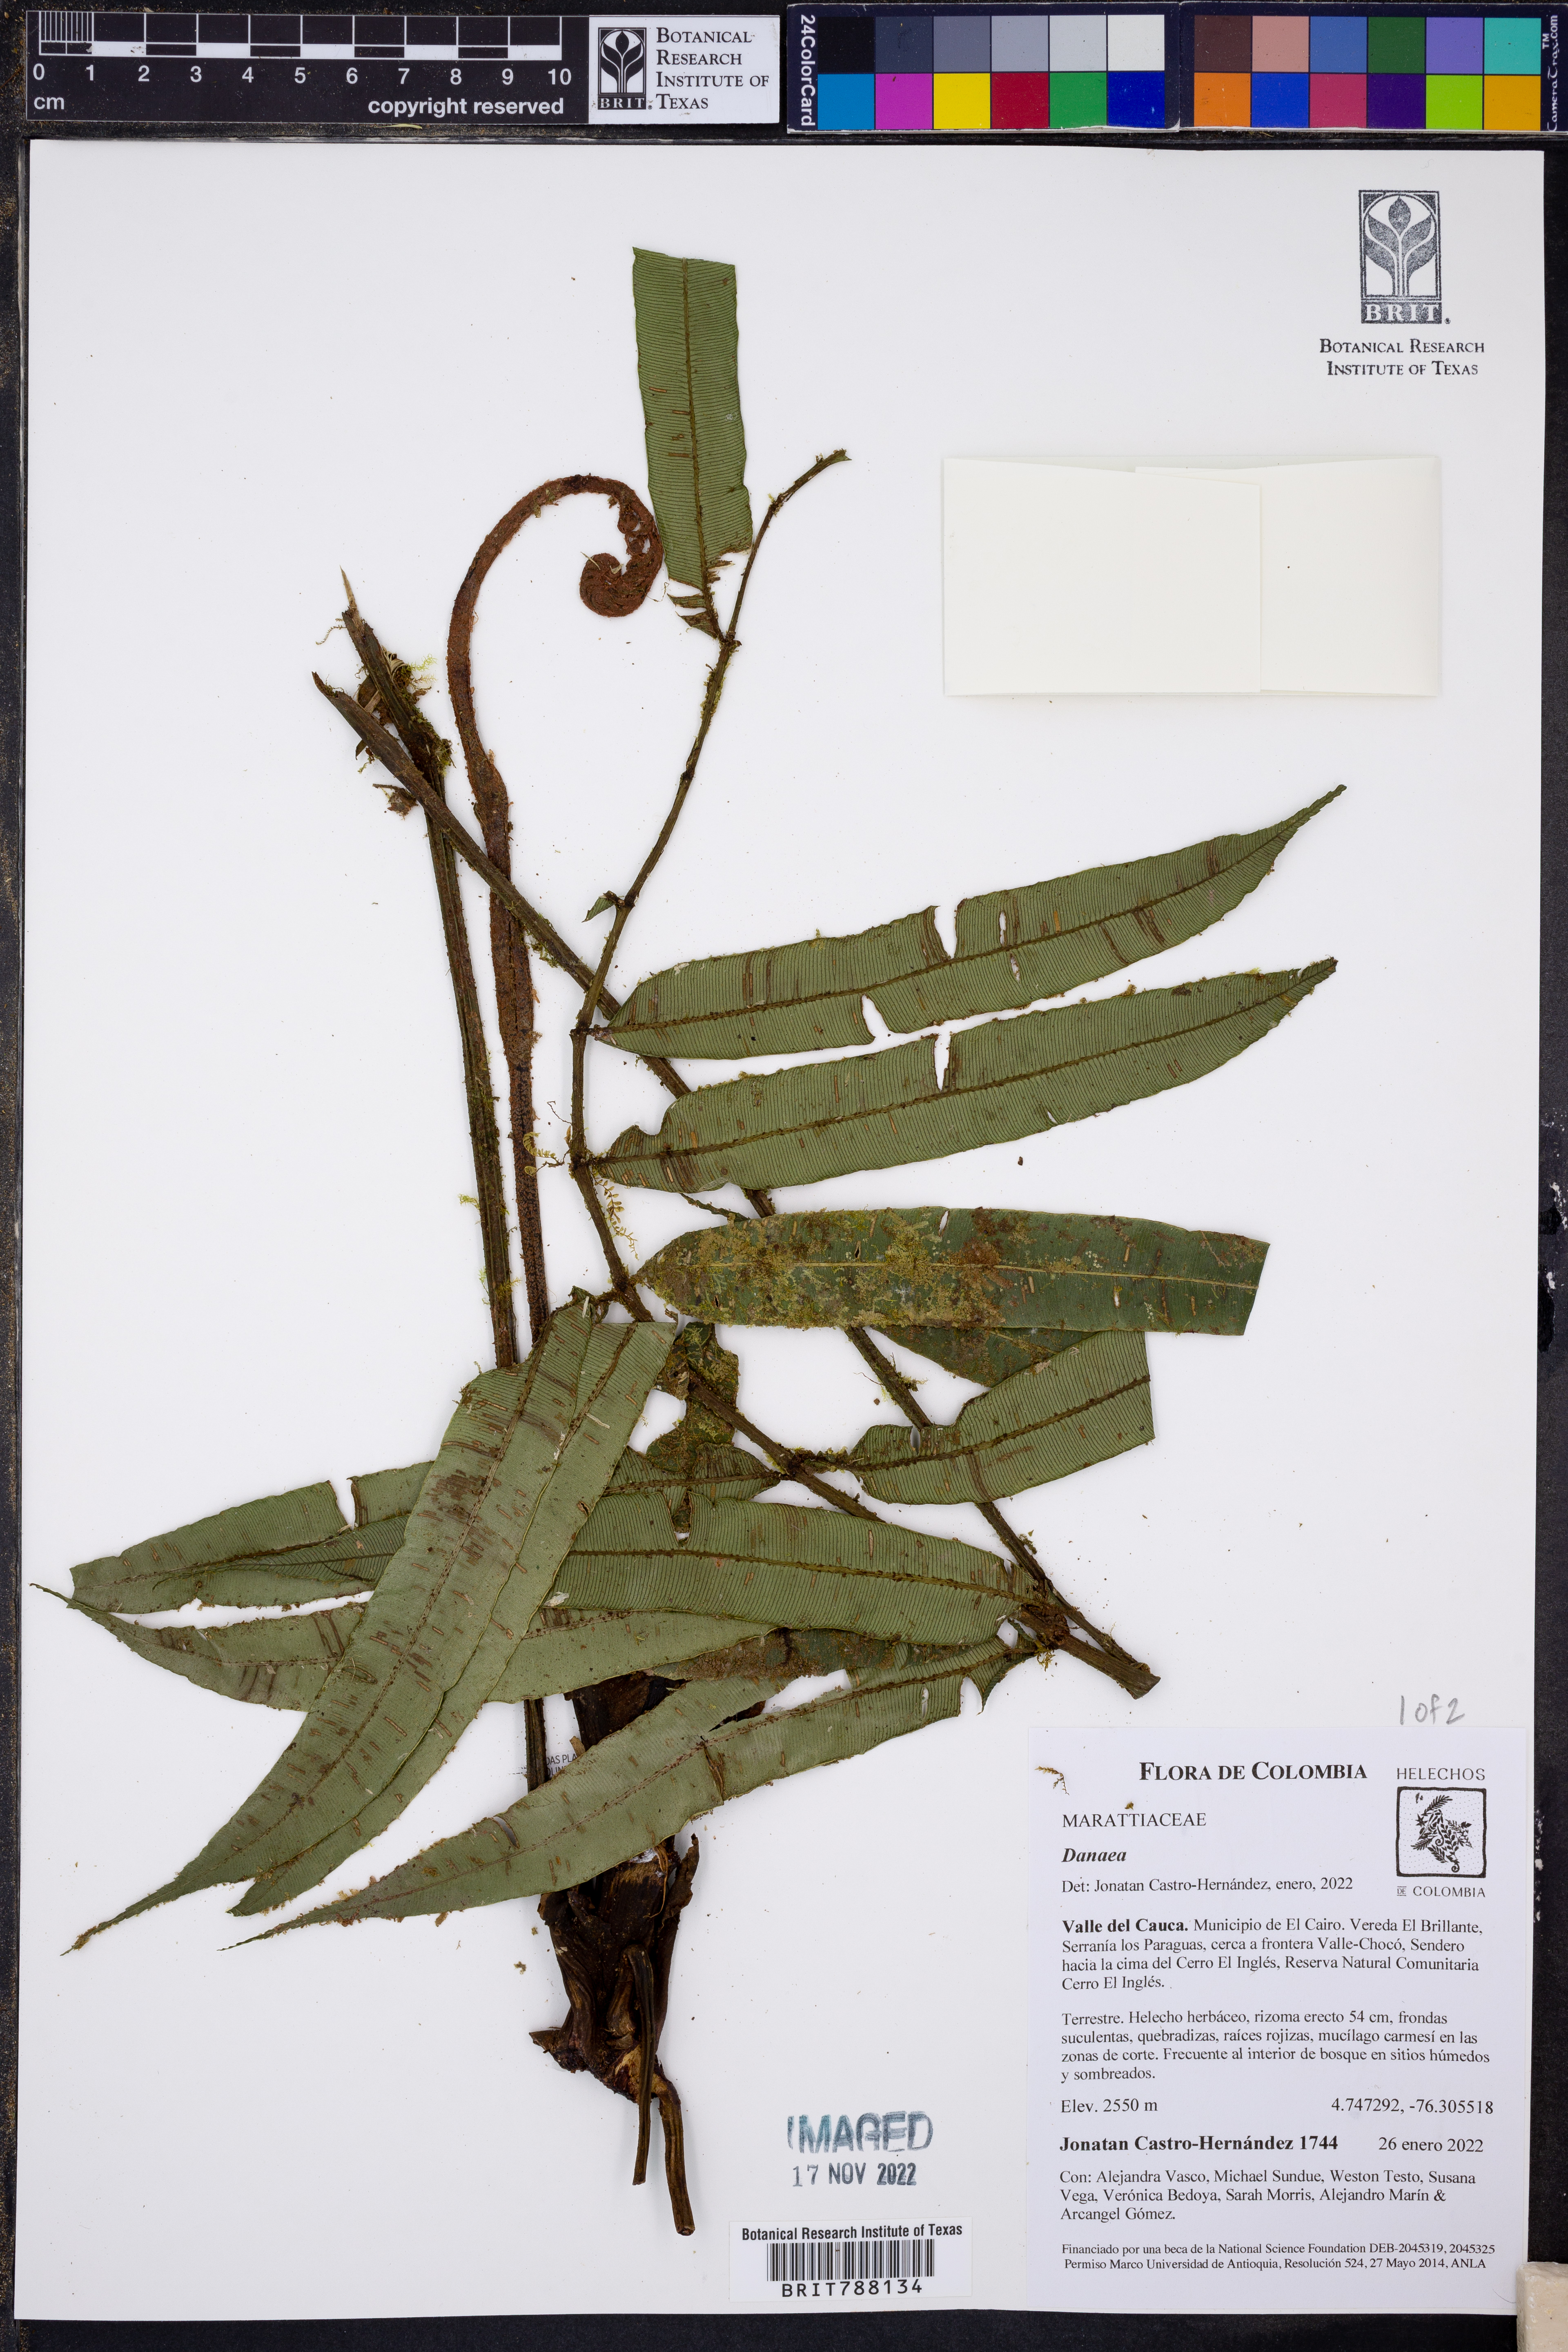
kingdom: Plantae
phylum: Tracheophyta
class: Polypodiopsida
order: Marattiales
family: Marattiaceae
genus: Danaea
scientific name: Danaea
